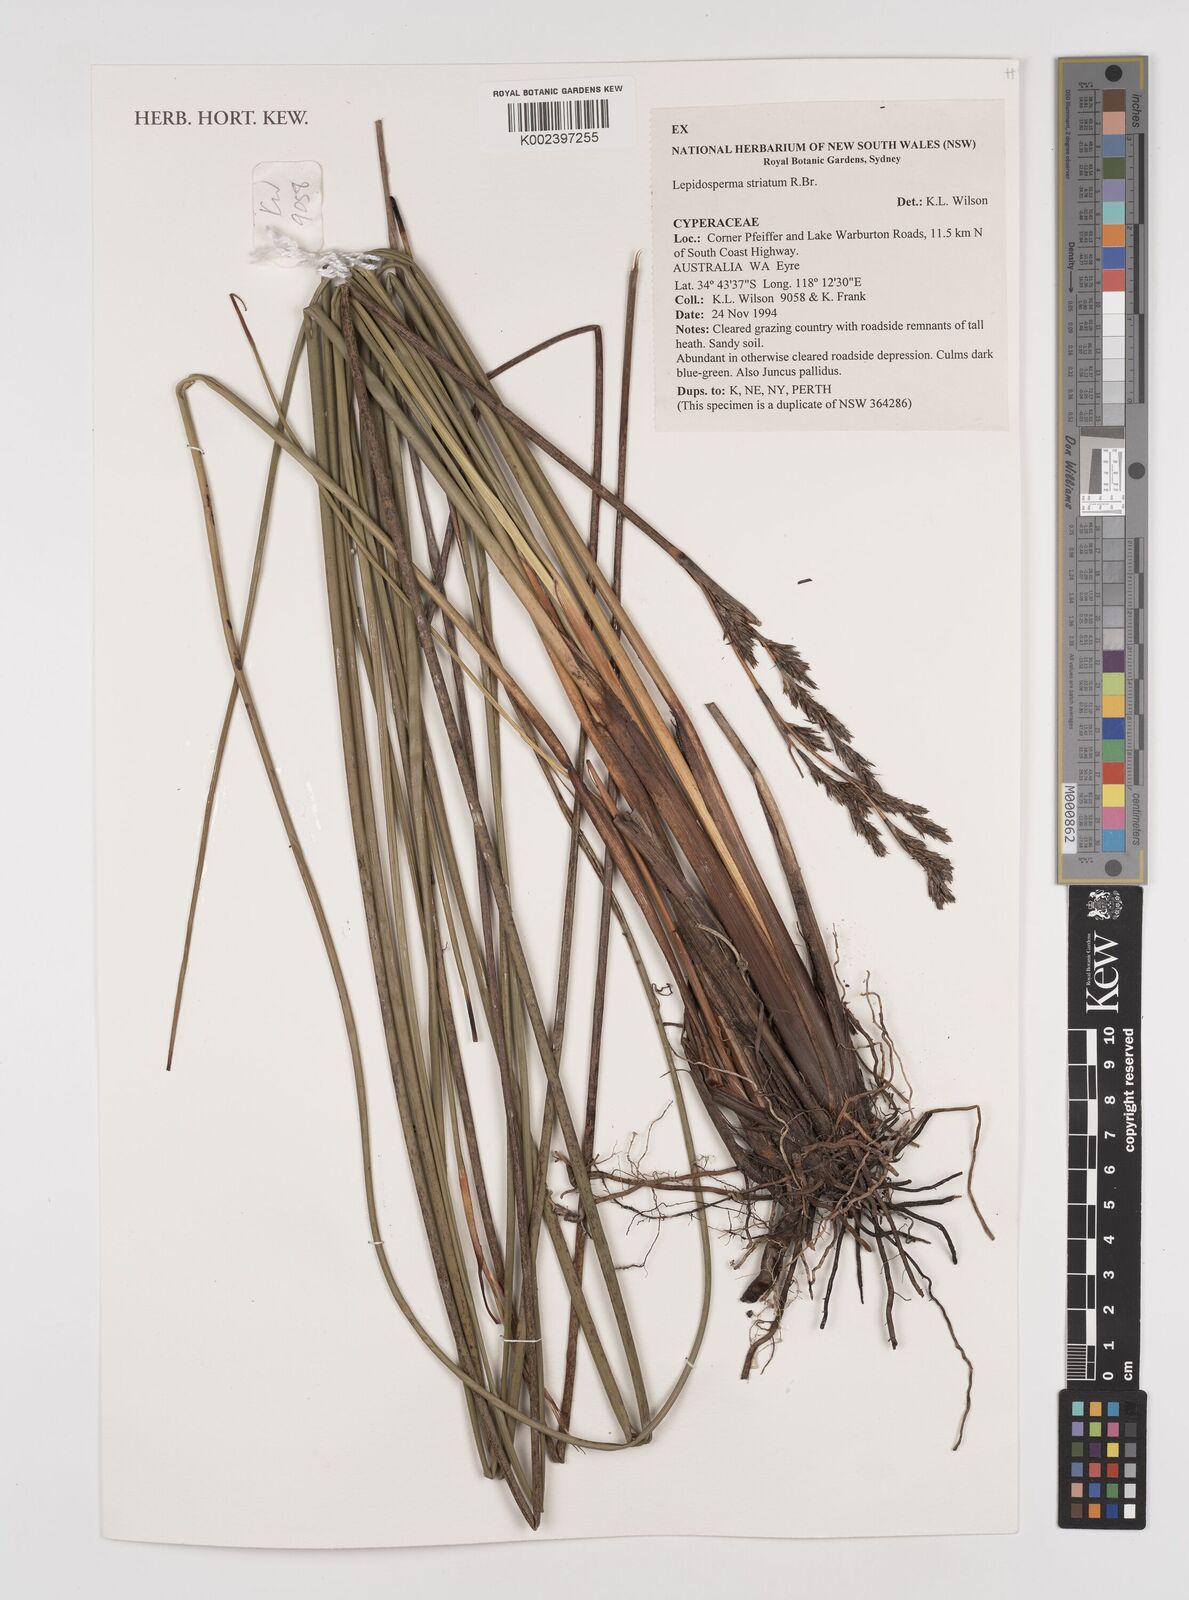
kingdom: Plantae
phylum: Tracheophyta
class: Liliopsida
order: Poales
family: Cyperaceae
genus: Lepidosperma
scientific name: Lepidosperma striatum
